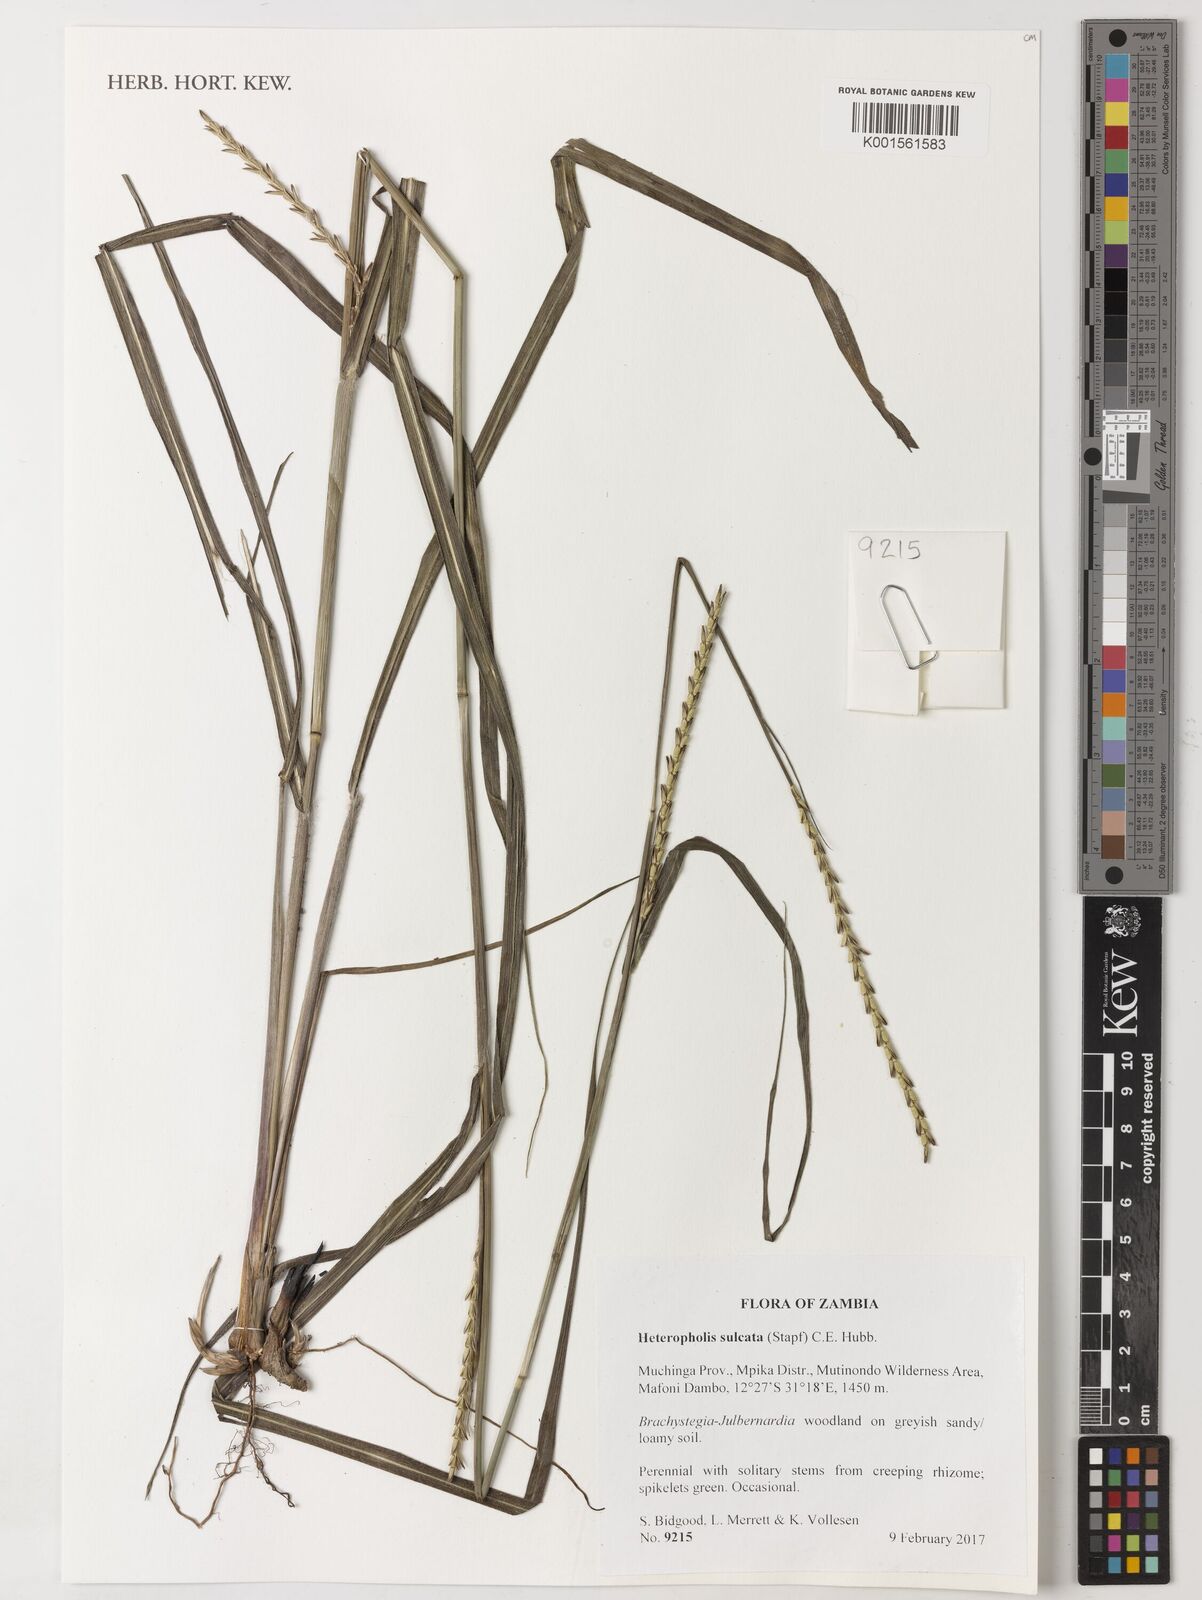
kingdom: Plantae
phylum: Tracheophyta
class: Liliopsida
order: Poales
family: Poaceae
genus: Heteropholis
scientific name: Heteropholis sulcata
